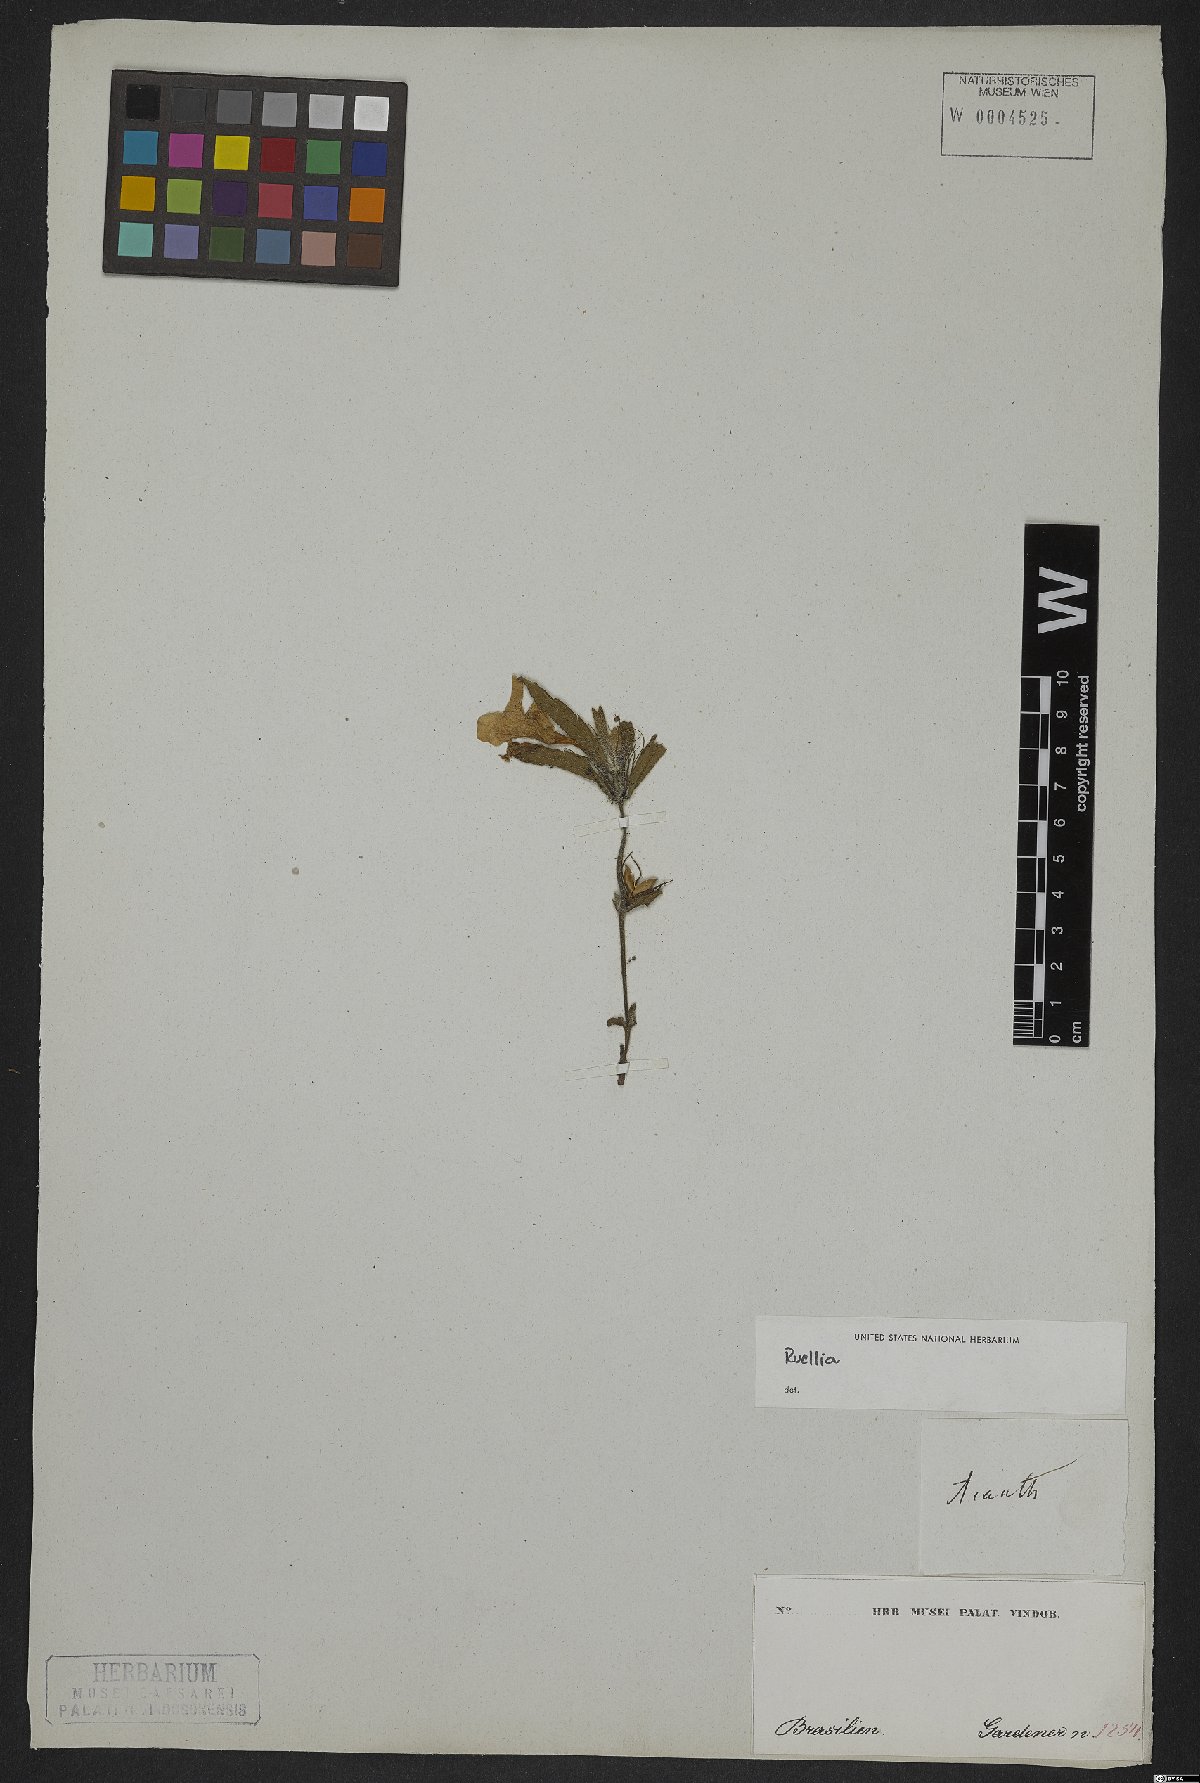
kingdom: Plantae
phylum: Tracheophyta
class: Magnoliopsida
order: Lamiales
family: Acanthaceae
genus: Ruellia
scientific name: Ruellia
